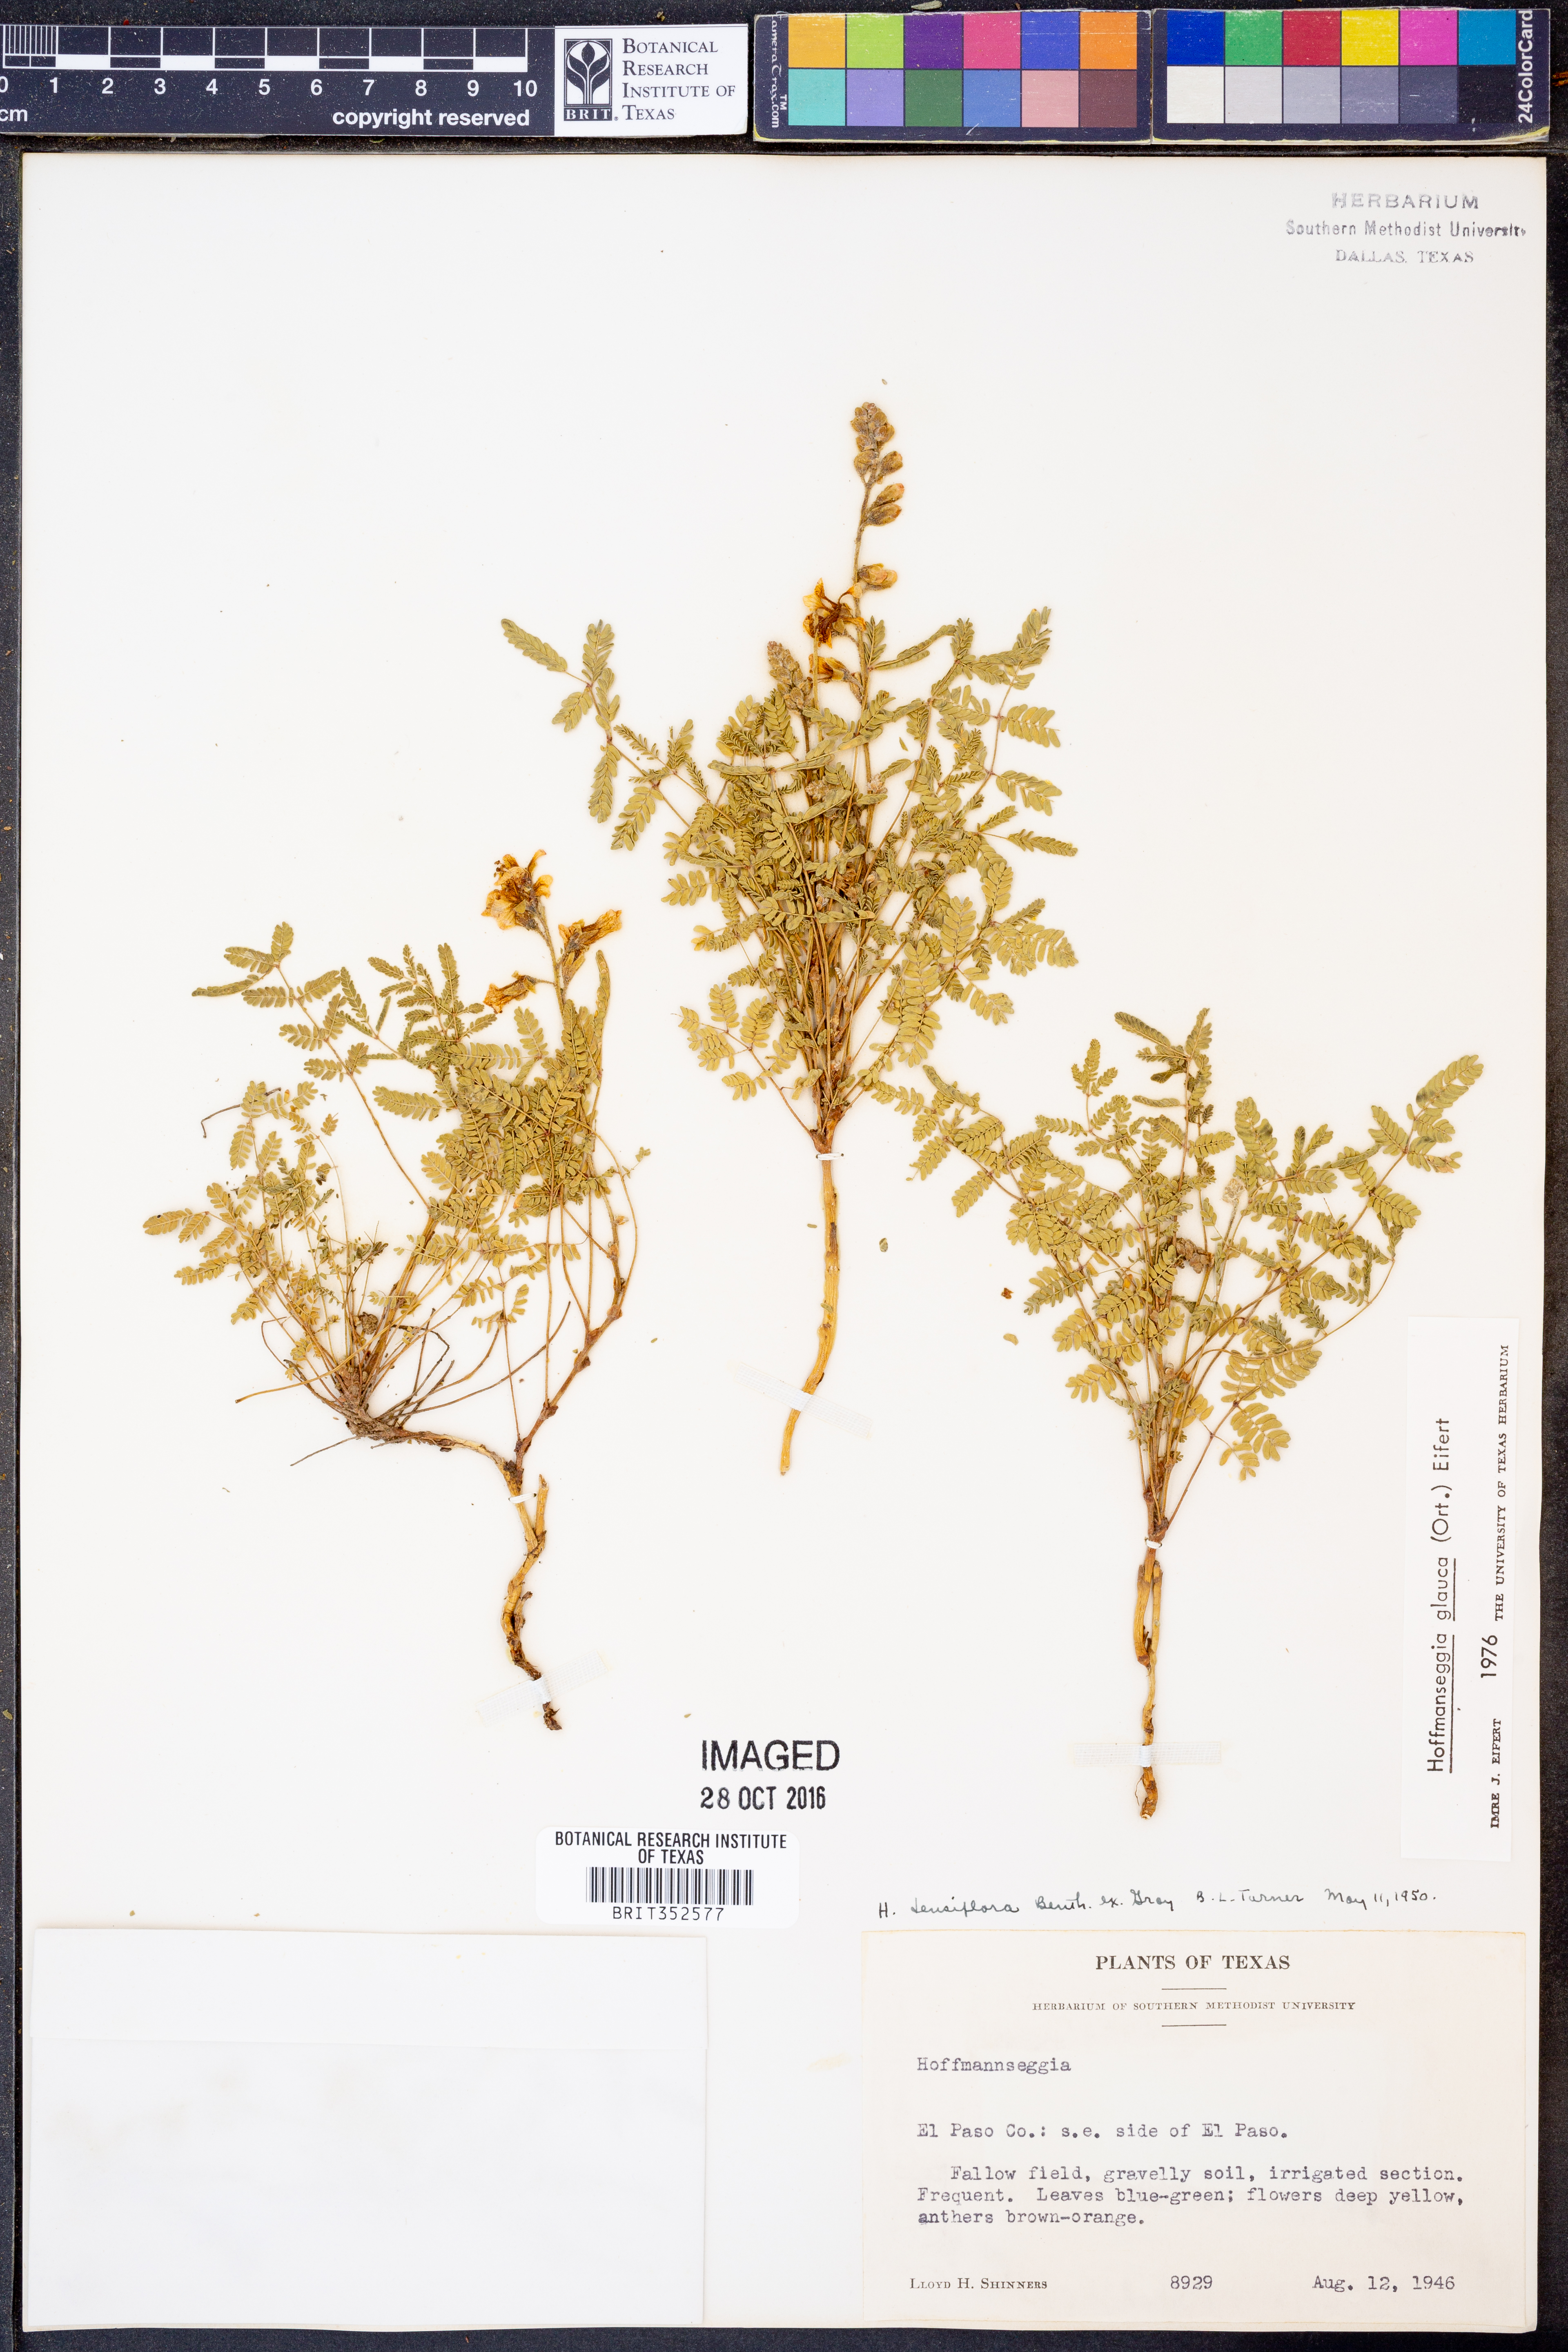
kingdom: Plantae
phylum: Tracheophyta
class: Magnoliopsida
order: Fabales
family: Fabaceae
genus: Hoffmannseggia
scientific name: Hoffmannseggia glauca
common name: Pignut
